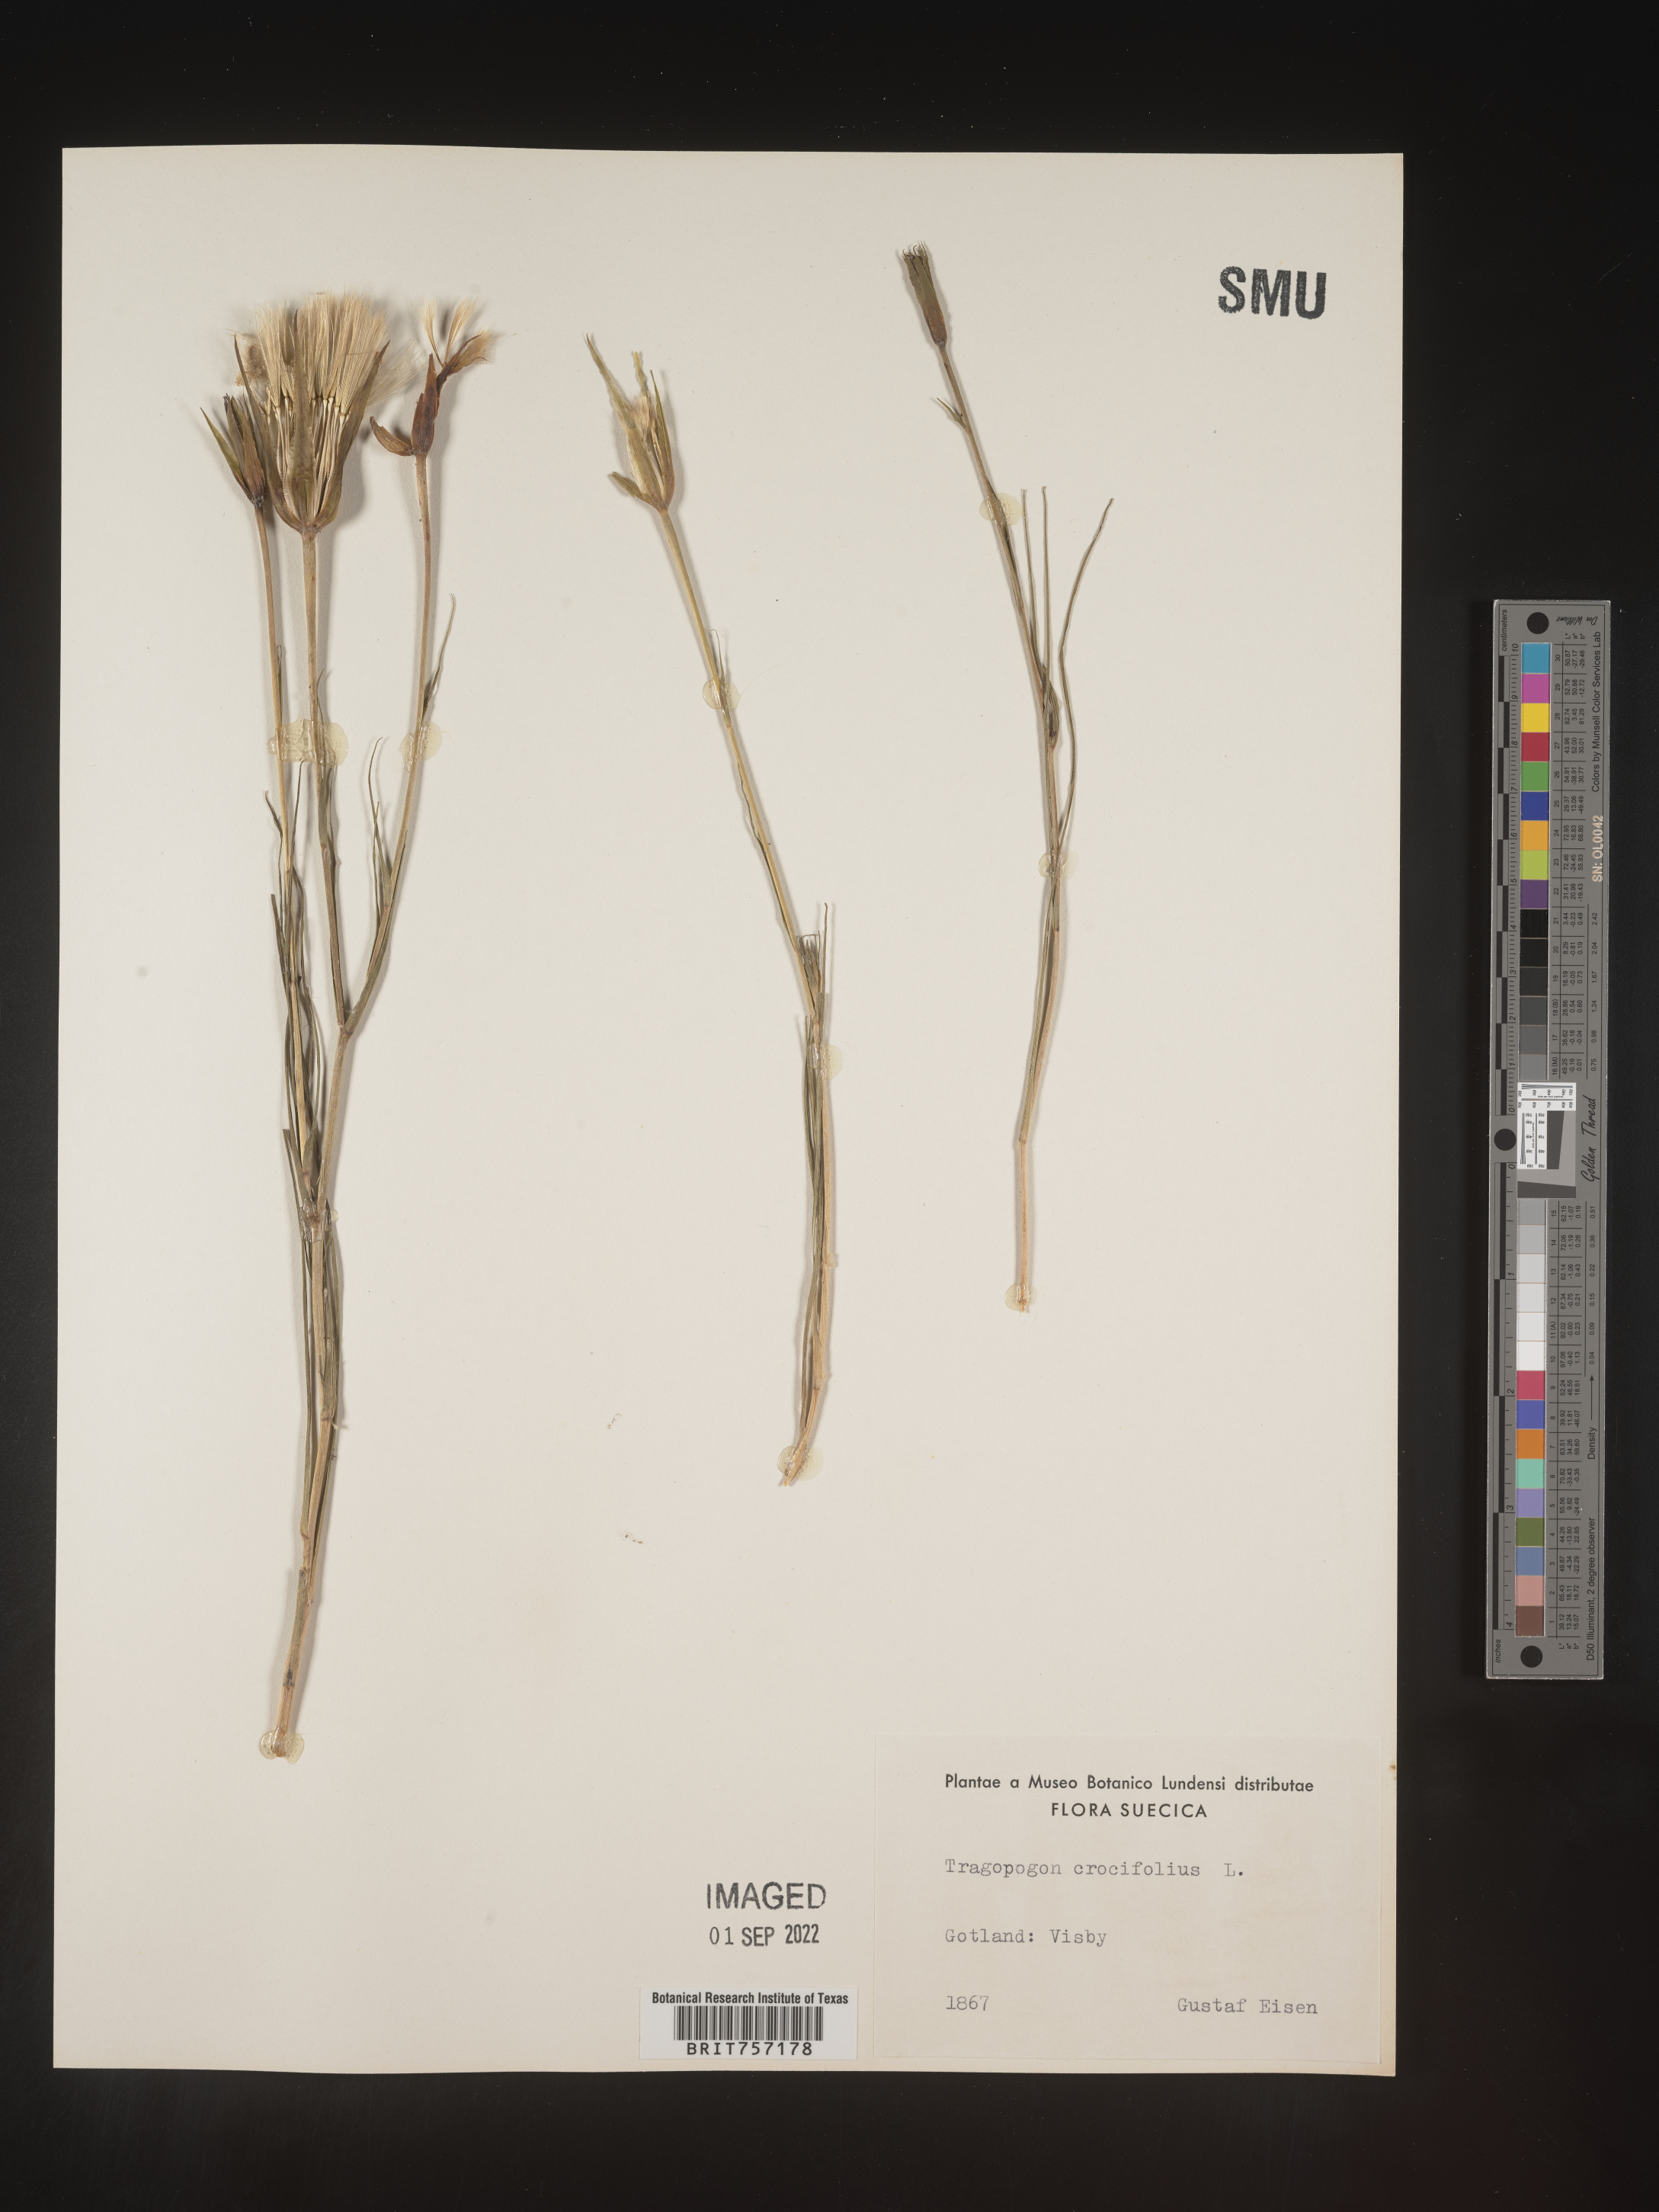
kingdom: Plantae
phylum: Tracheophyta
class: Magnoliopsida
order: Asterales
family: Asteraceae
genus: Tragopogon
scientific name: Tragopogon
